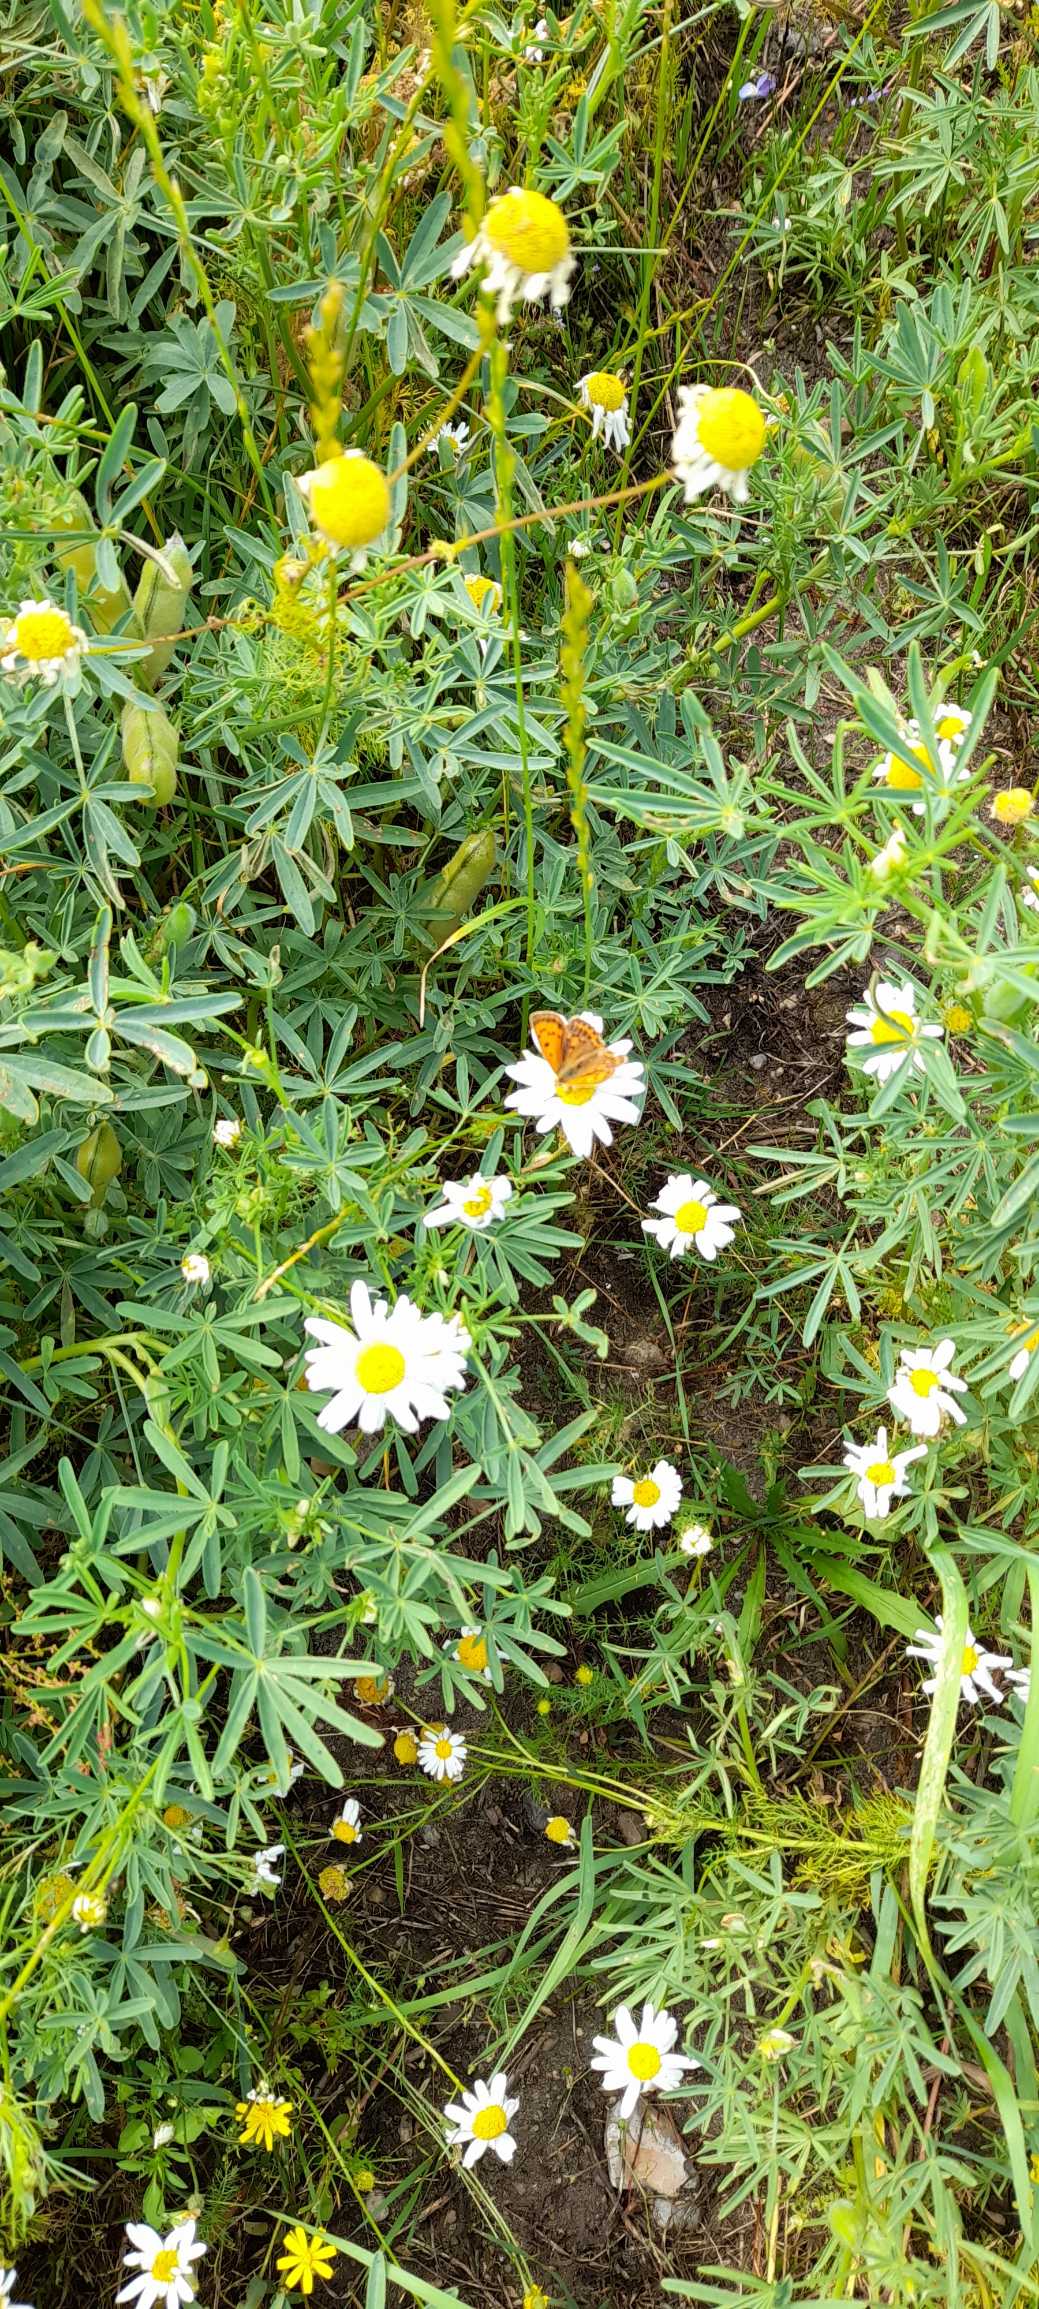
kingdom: Animalia
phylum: Arthropoda
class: Insecta
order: Lepidoptera
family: Lycaenidae
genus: Lycaena
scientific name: Lycaena virgaureae
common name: Dukatsommerfugl
